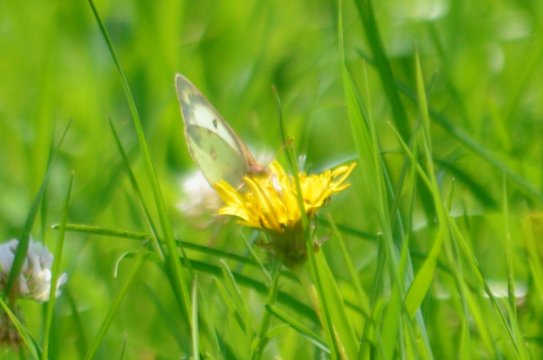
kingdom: Animalia
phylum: Arthropoda
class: Insecta
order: Lepidoptera
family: Pieridae
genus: Colias
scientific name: Colias philodice
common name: Clouded Sulphur
